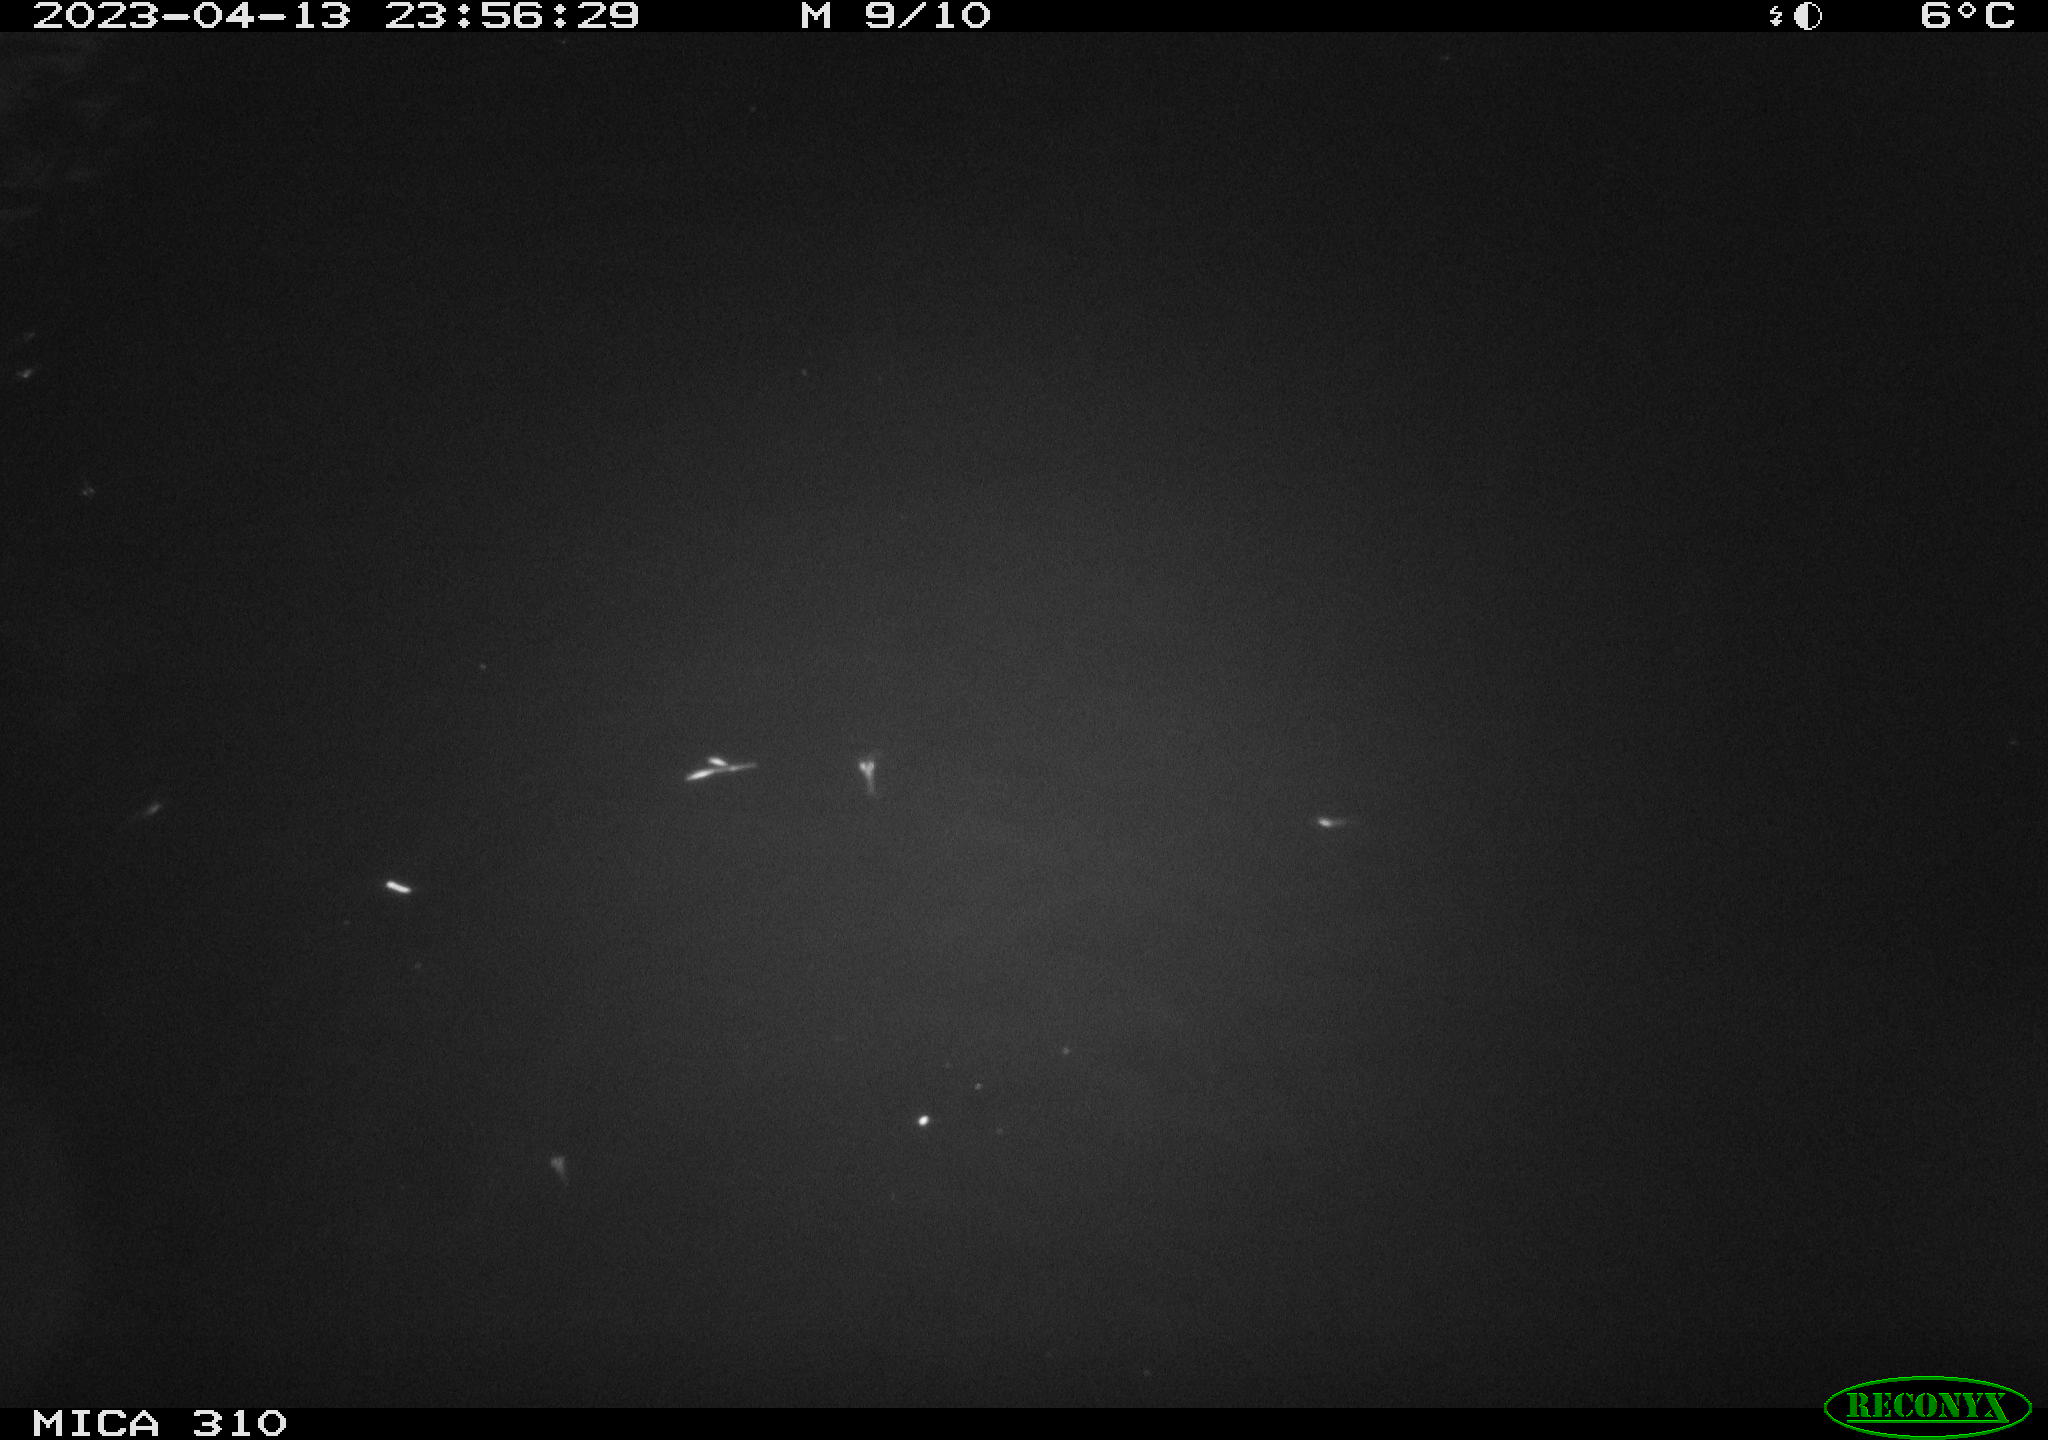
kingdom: Animalia
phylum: Chordata
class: Mammalia
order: Rodentia
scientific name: Rodentia
